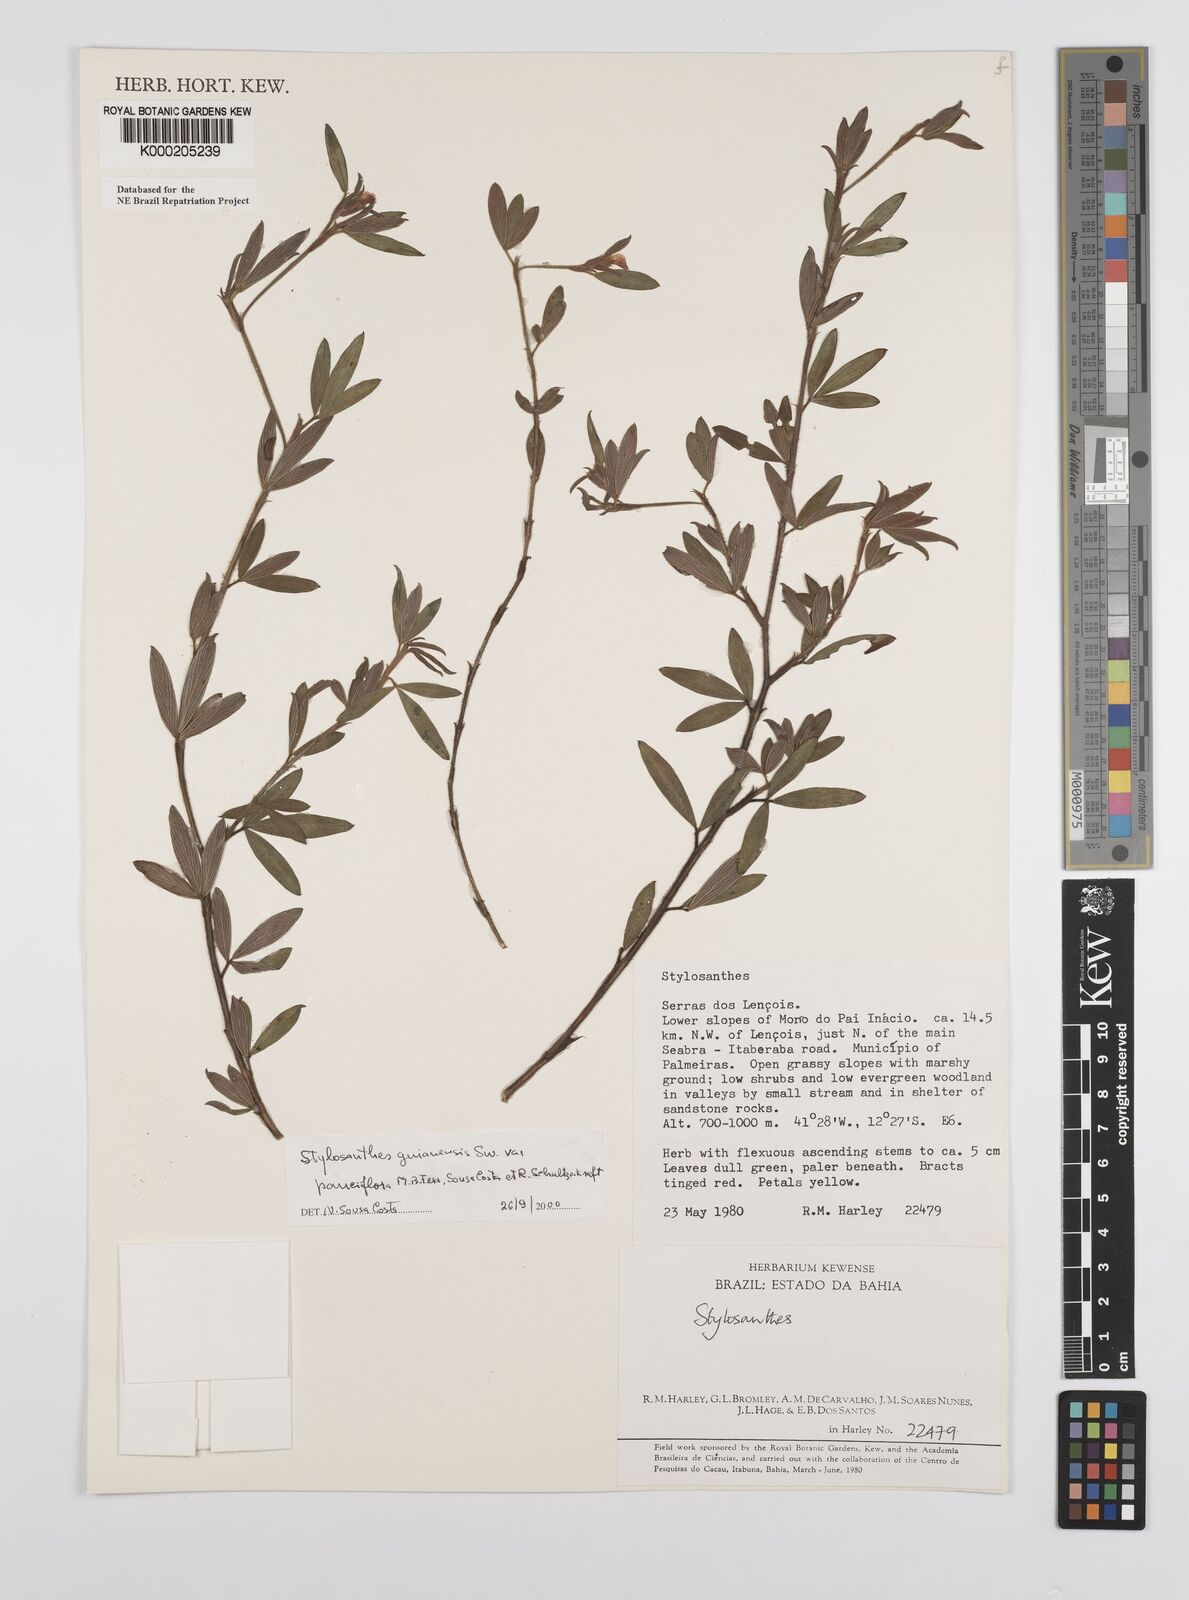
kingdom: Plantae
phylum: Tracheophyta
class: Magnoliopsida
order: Fabales
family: Fabaceae
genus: Stylosanthes
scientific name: Stylosanthes guianensis
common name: Pencil flower
